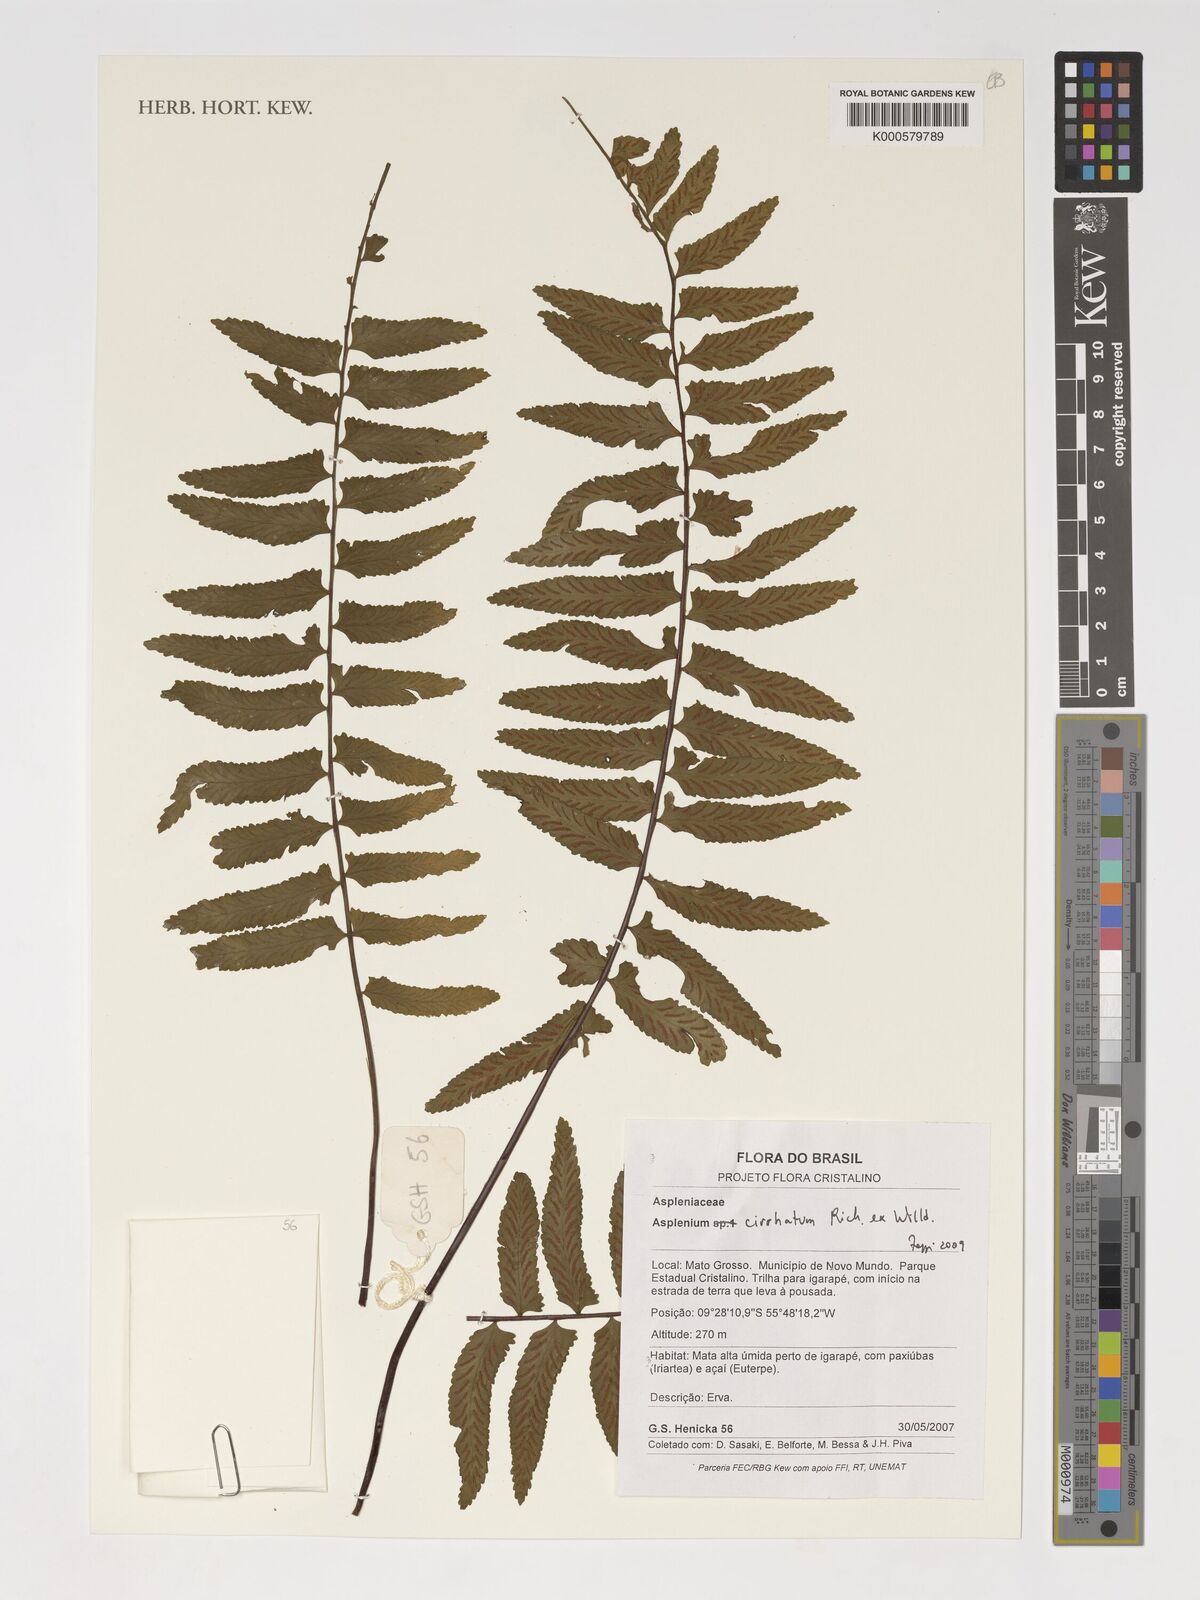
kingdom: Plantae
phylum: Tracheophyta
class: Polypodiopsida
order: Polypodiales
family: Aspleniaceae
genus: Asplenium
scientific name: Asplenium cirrhatum
